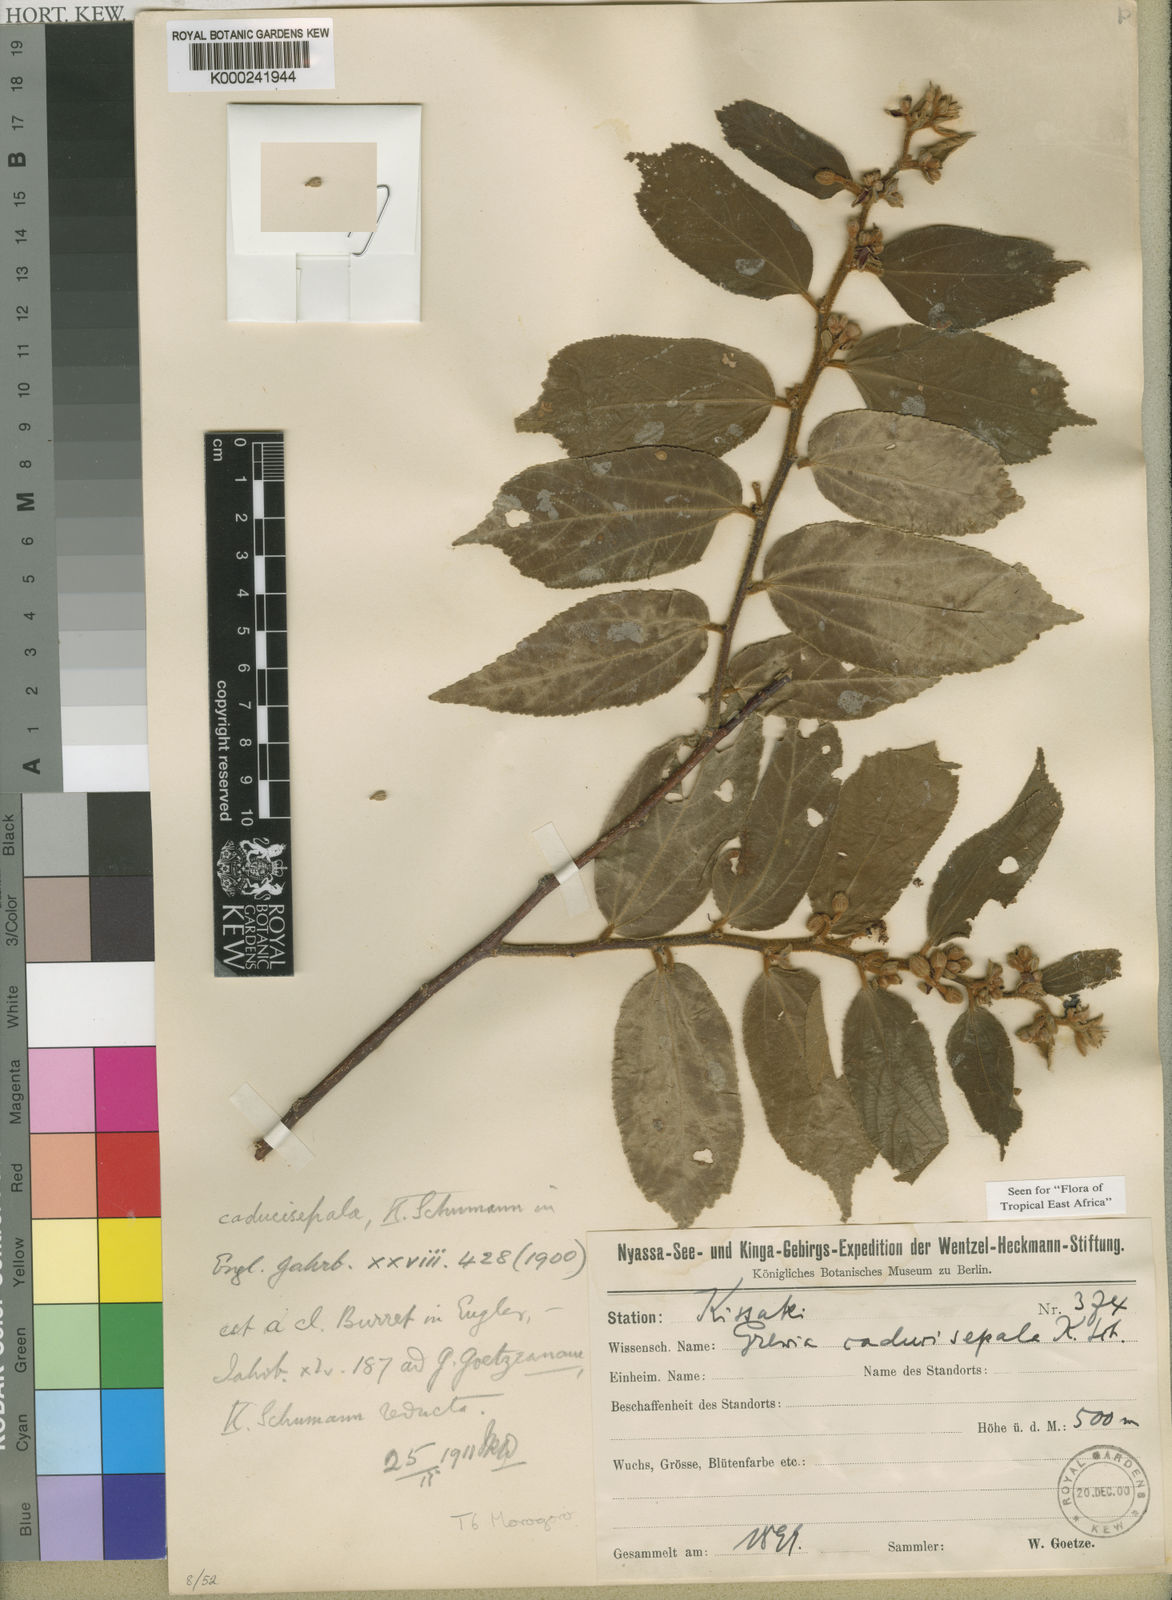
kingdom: Plantae
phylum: Tracheophyta
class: Magnoliopsida
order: Malvales
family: Malvaceae
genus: Grewia
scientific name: Grewia goetzeana
